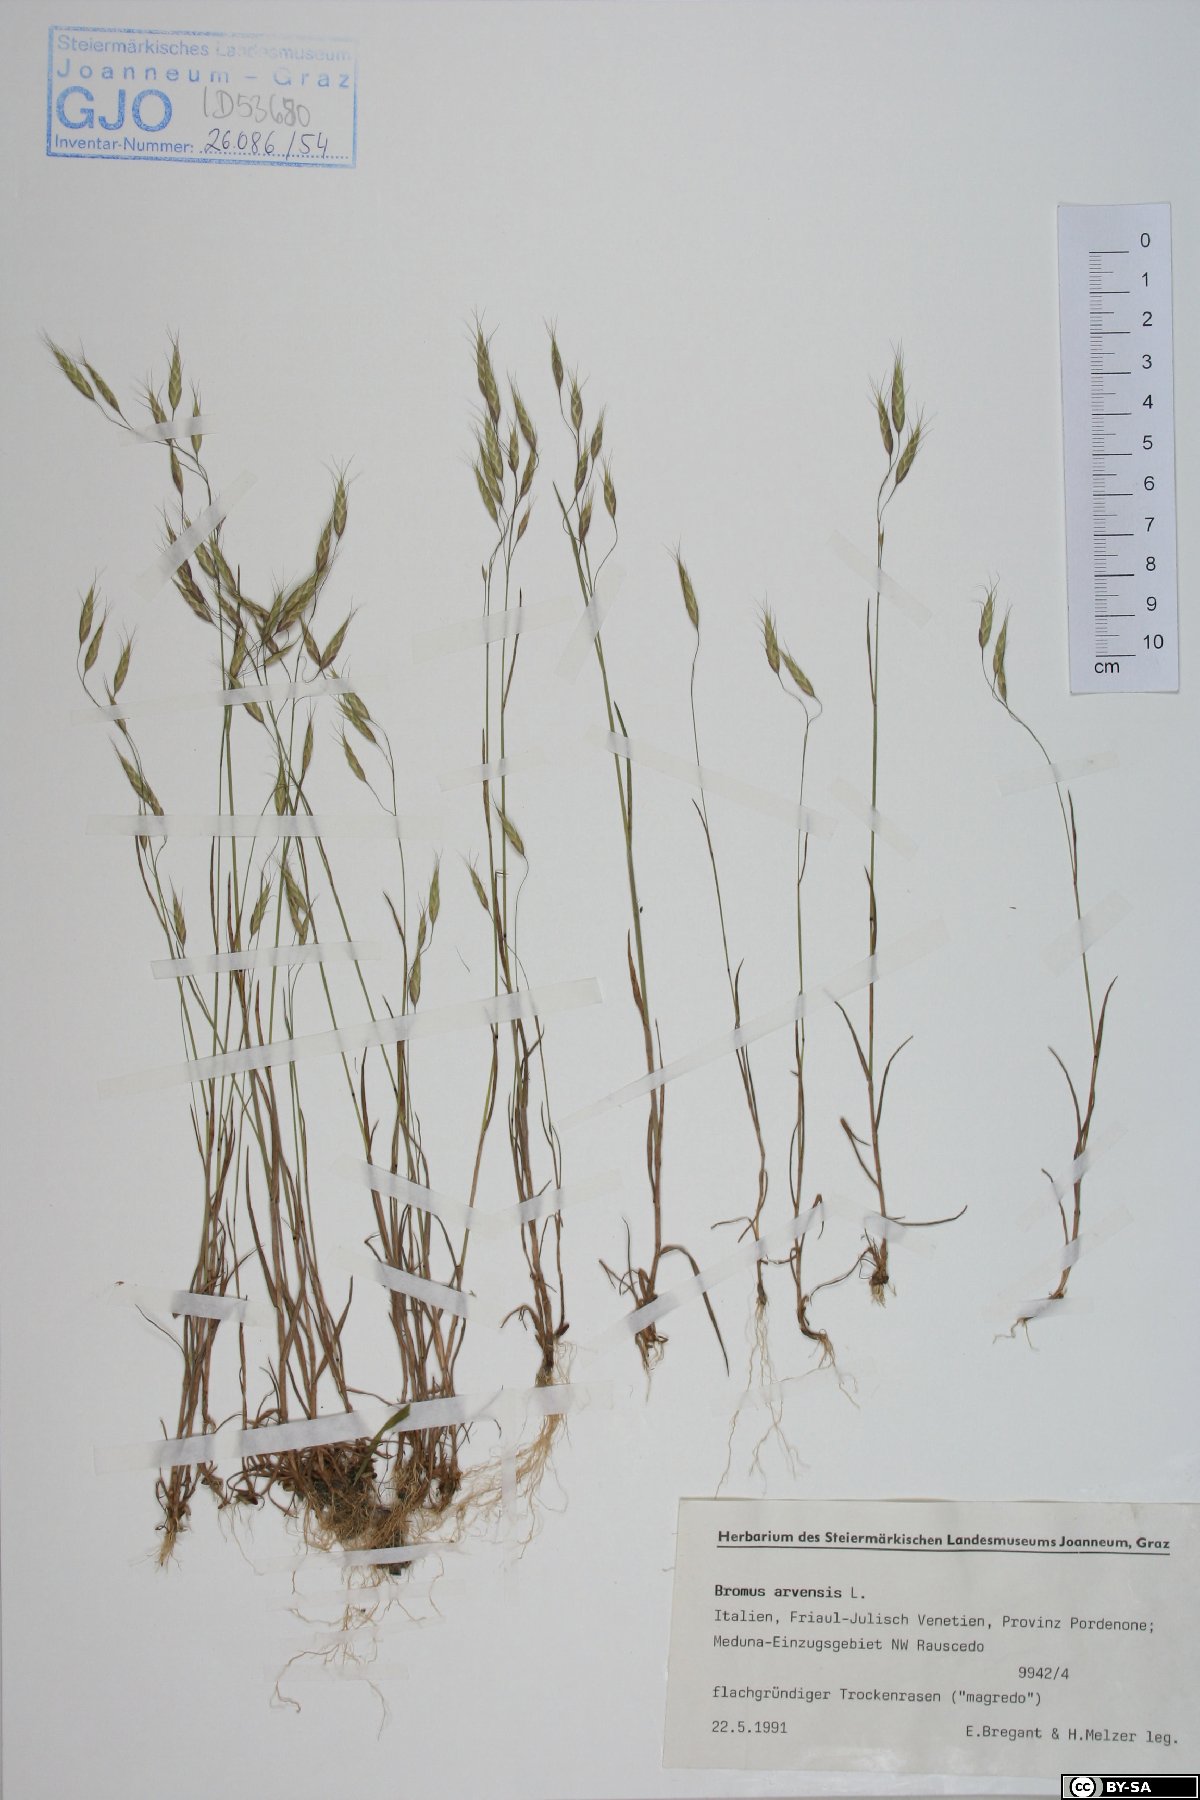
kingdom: Plantae
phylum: Tracheophyta
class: Liliopsida
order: Poales
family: Poaceae
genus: Bromus
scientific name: Bromus arvensis
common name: Field brome
